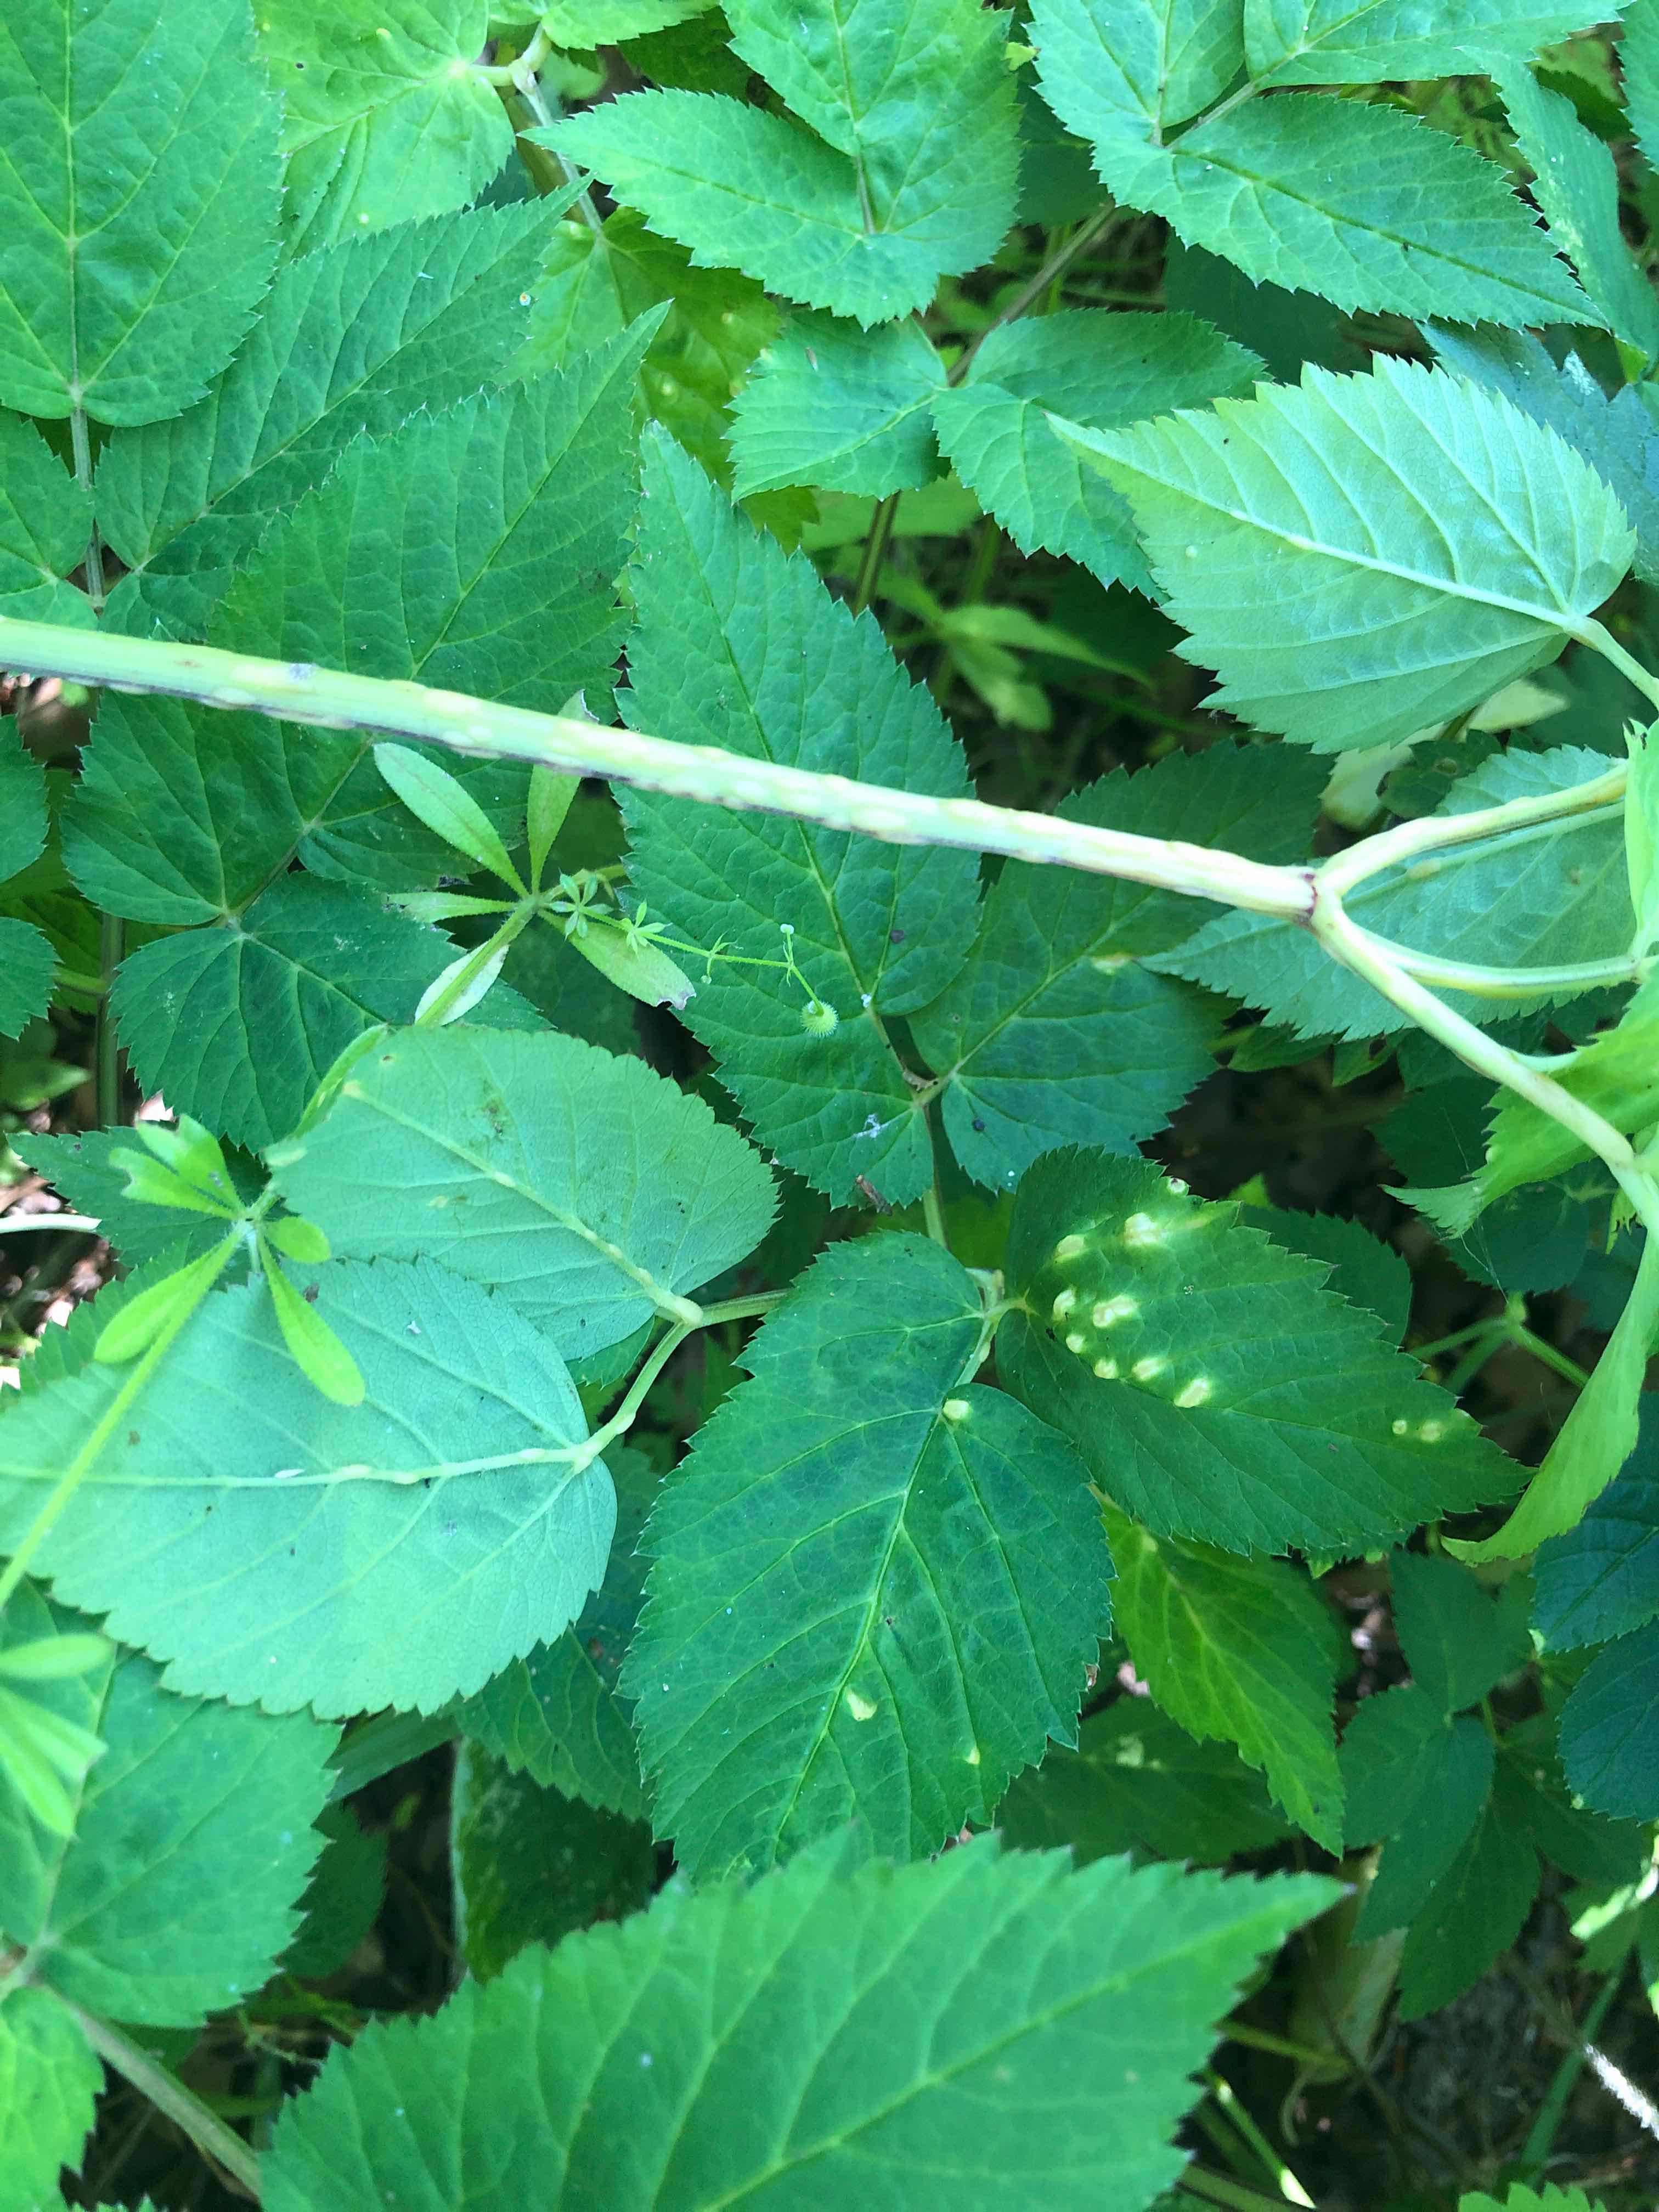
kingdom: Fungi
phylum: Ascomycota
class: Taphrinomycetes
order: Taphrinales
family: Taphrinaceae
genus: Protomyces
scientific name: Protomyces macrosporus
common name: skvalderkål-vablesæk
